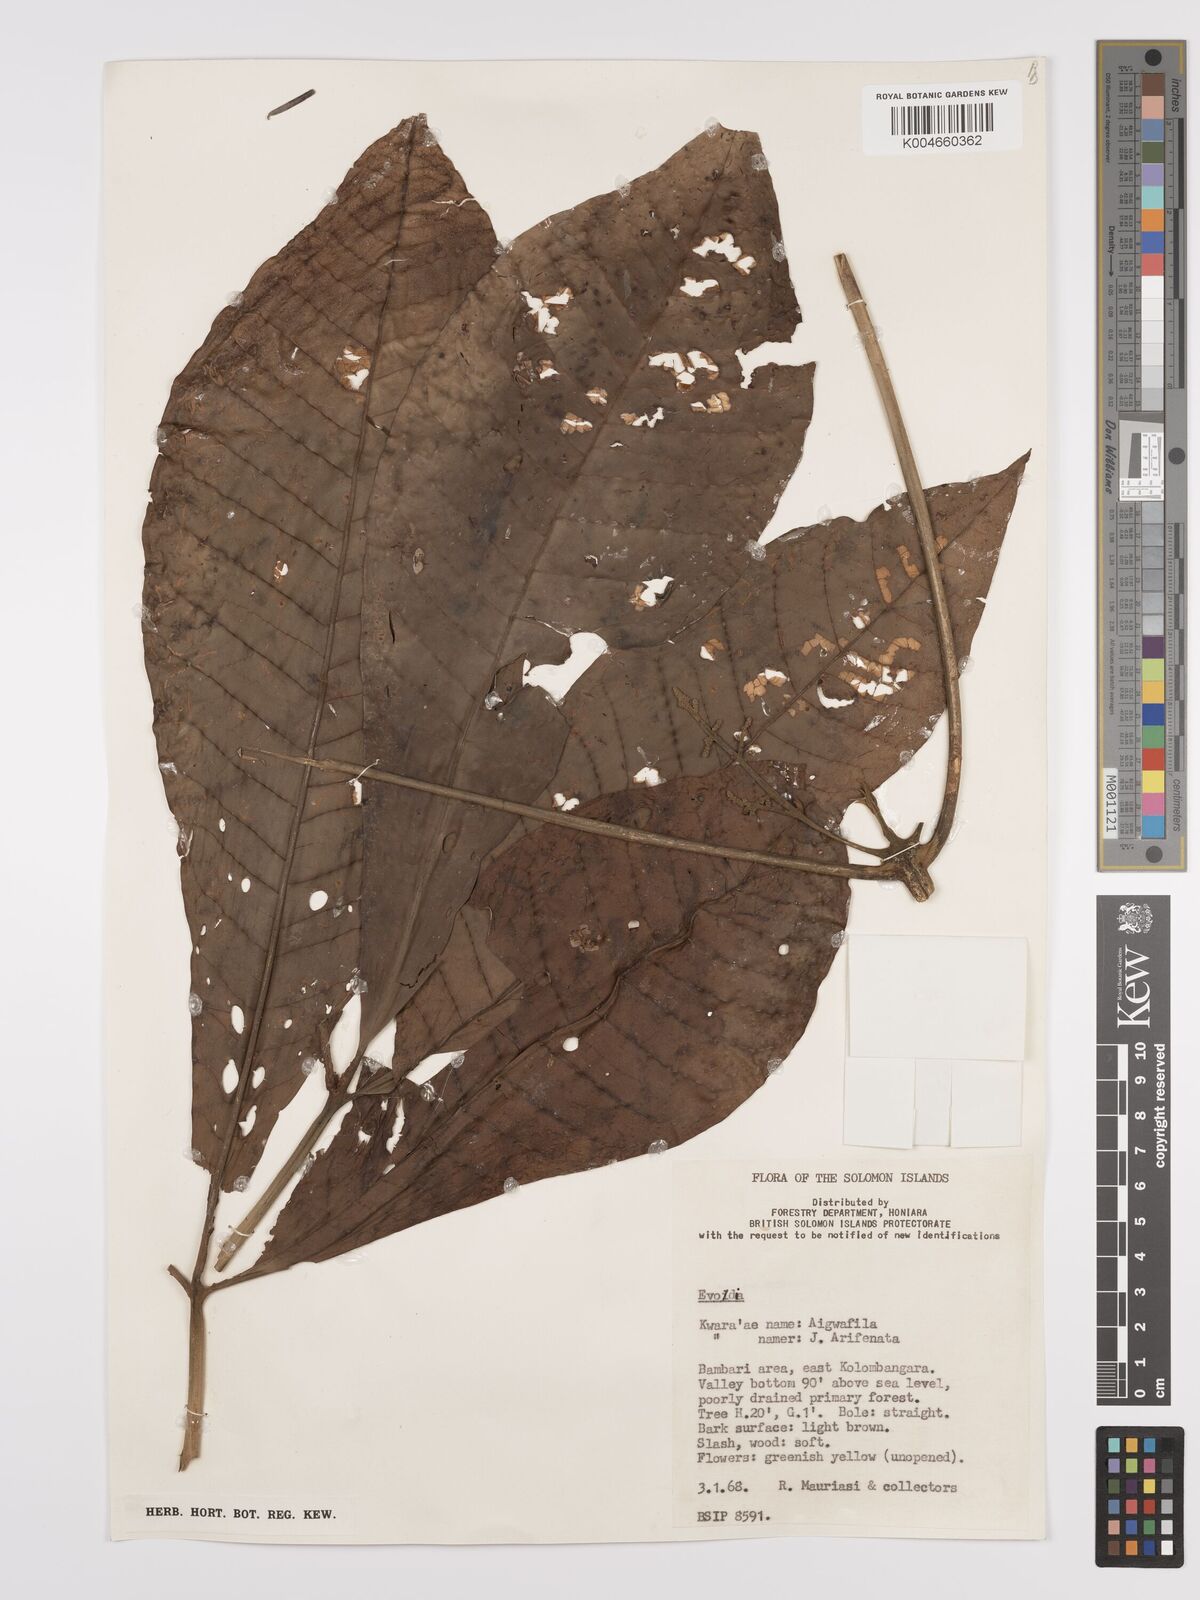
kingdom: Plantae
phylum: Tracheophyta
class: Magnoliopsida
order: Sapindales
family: Rutaceae
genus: Euodia
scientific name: Euodia
